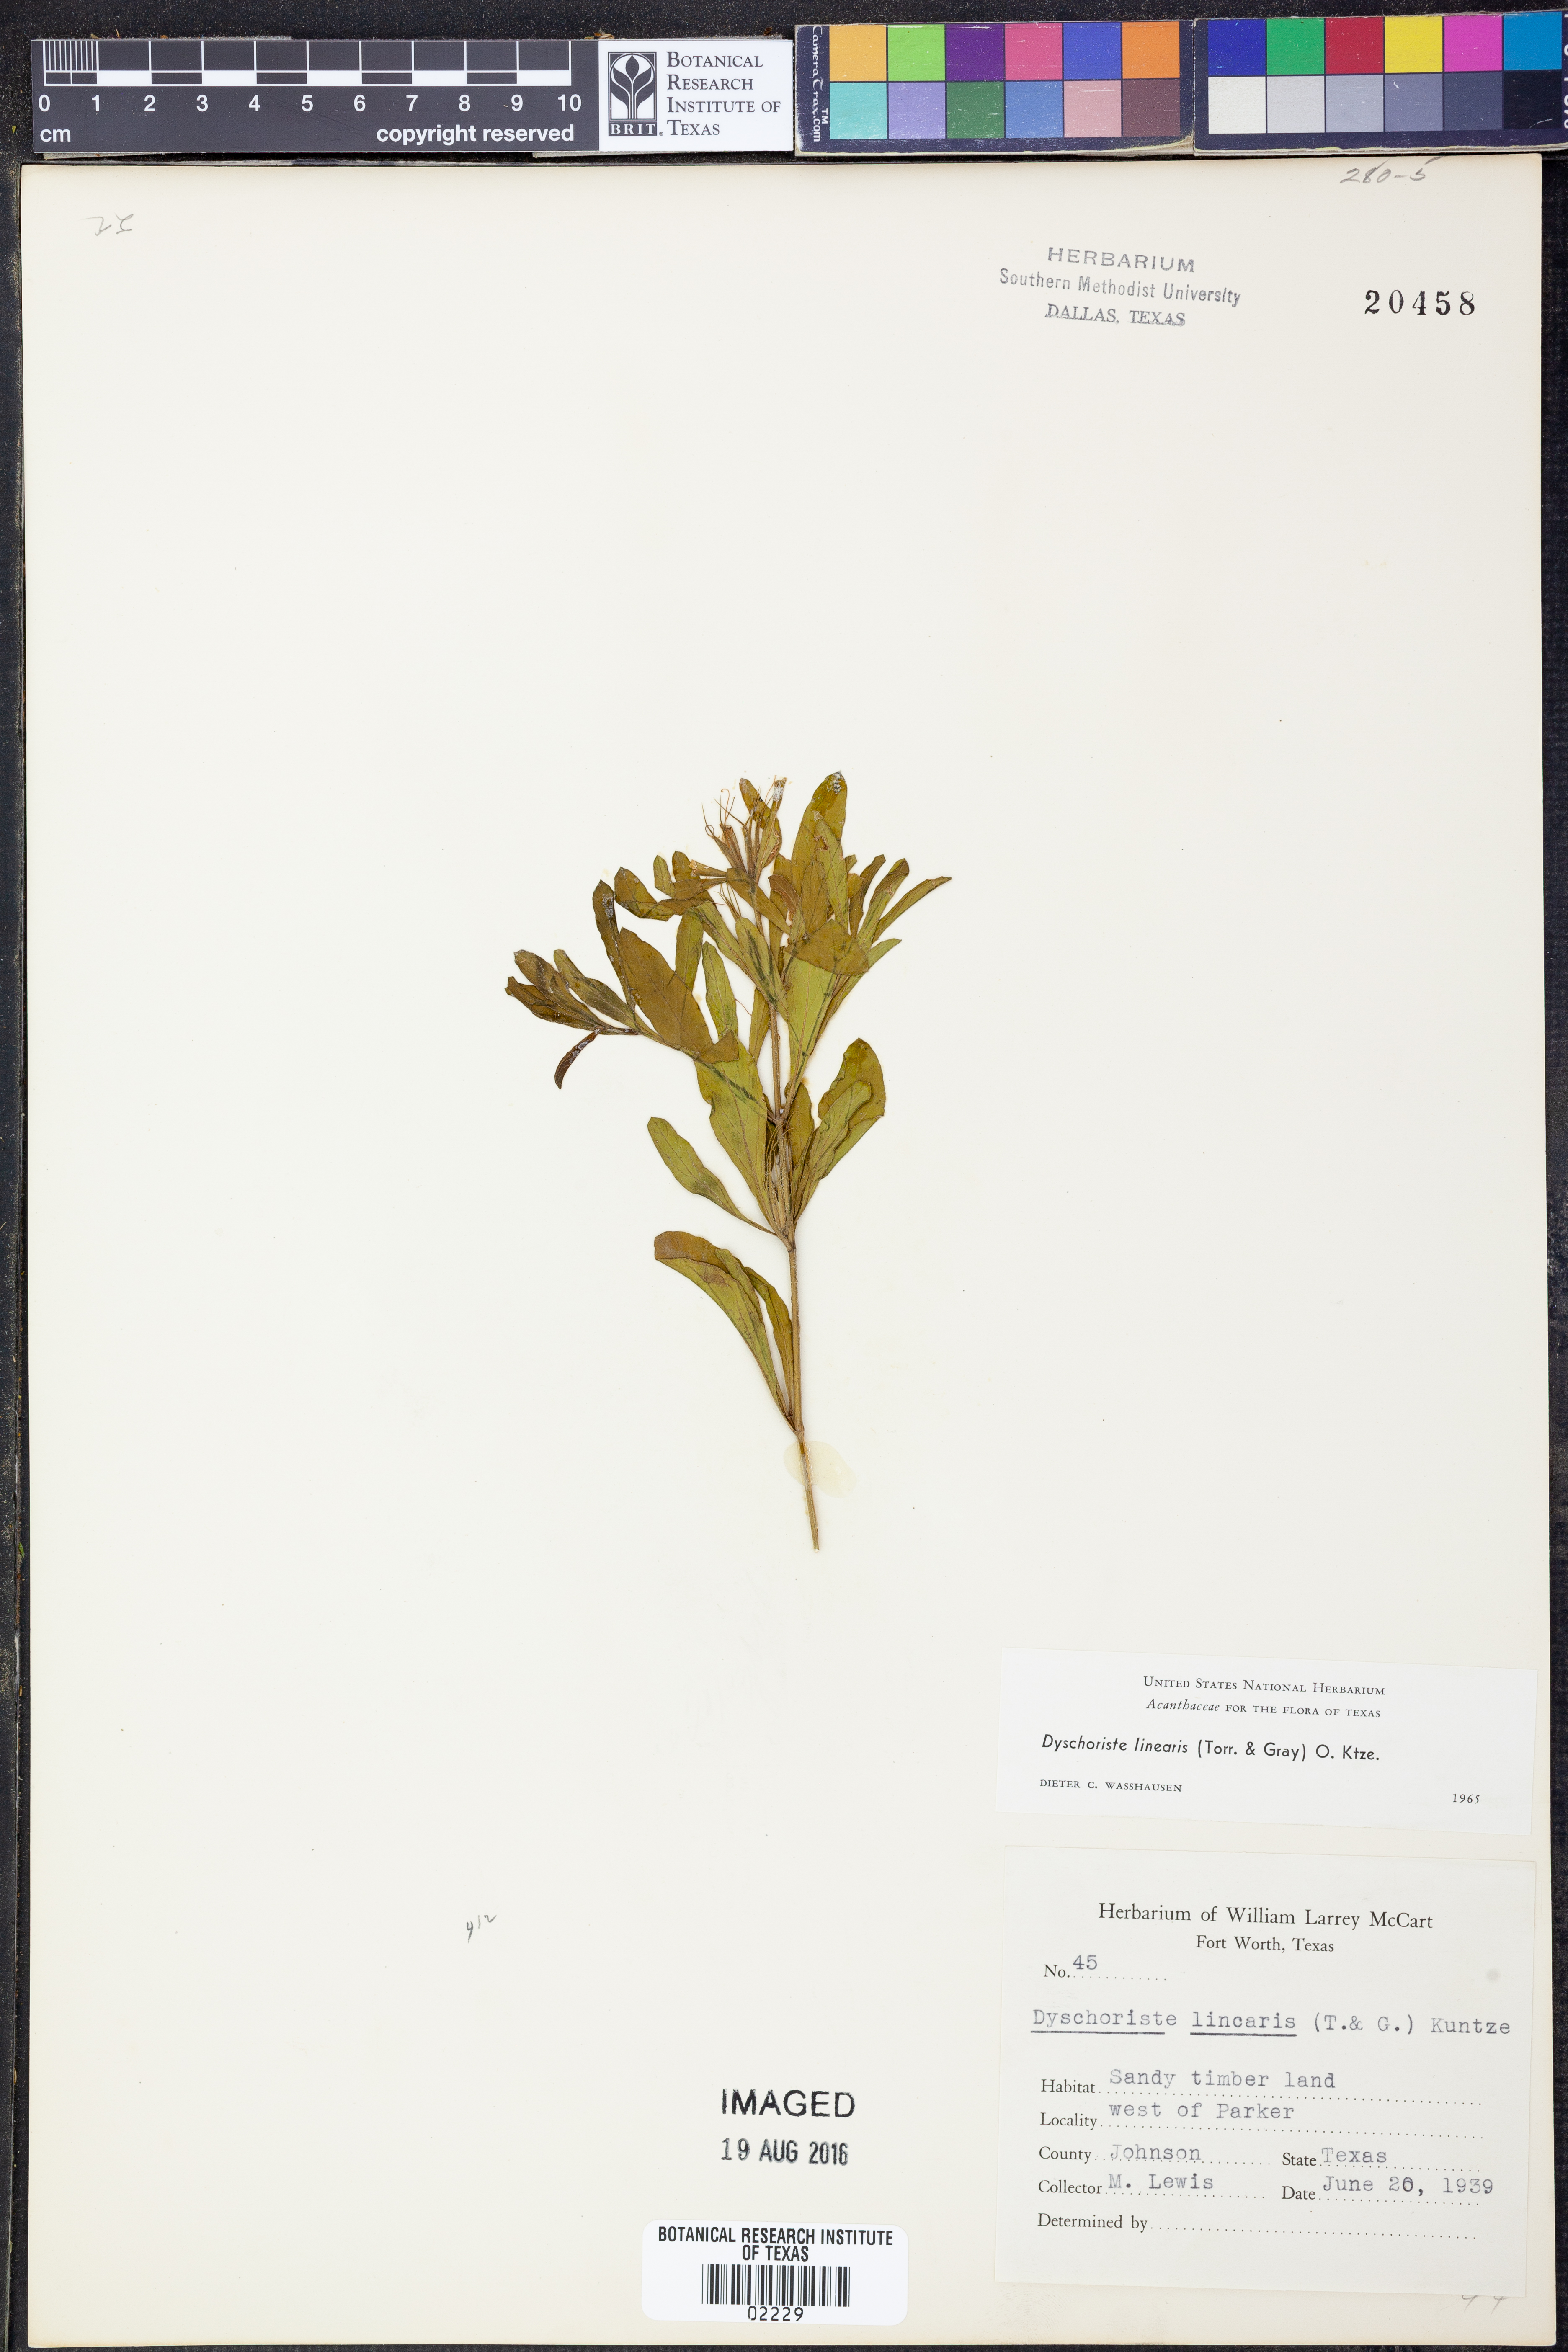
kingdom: Plantae
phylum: Tracheophyta
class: Magnoliopsida
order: Lamiales
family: Acanthaceae
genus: Dyschoriste
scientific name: Dyschoriste linearis
